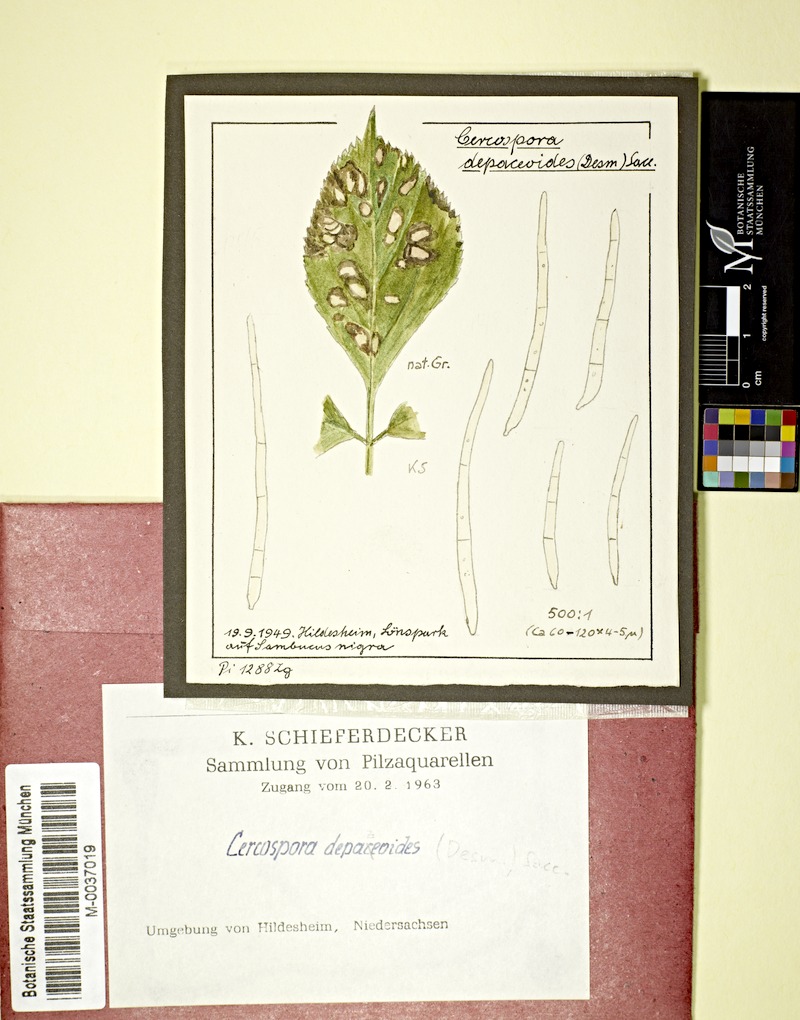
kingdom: Plantae
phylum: Tracheophyta
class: Magnoliopsida
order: Dipsacales
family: Viburnaceae
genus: Sambucus
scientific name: Sambucus nigra
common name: Elder
